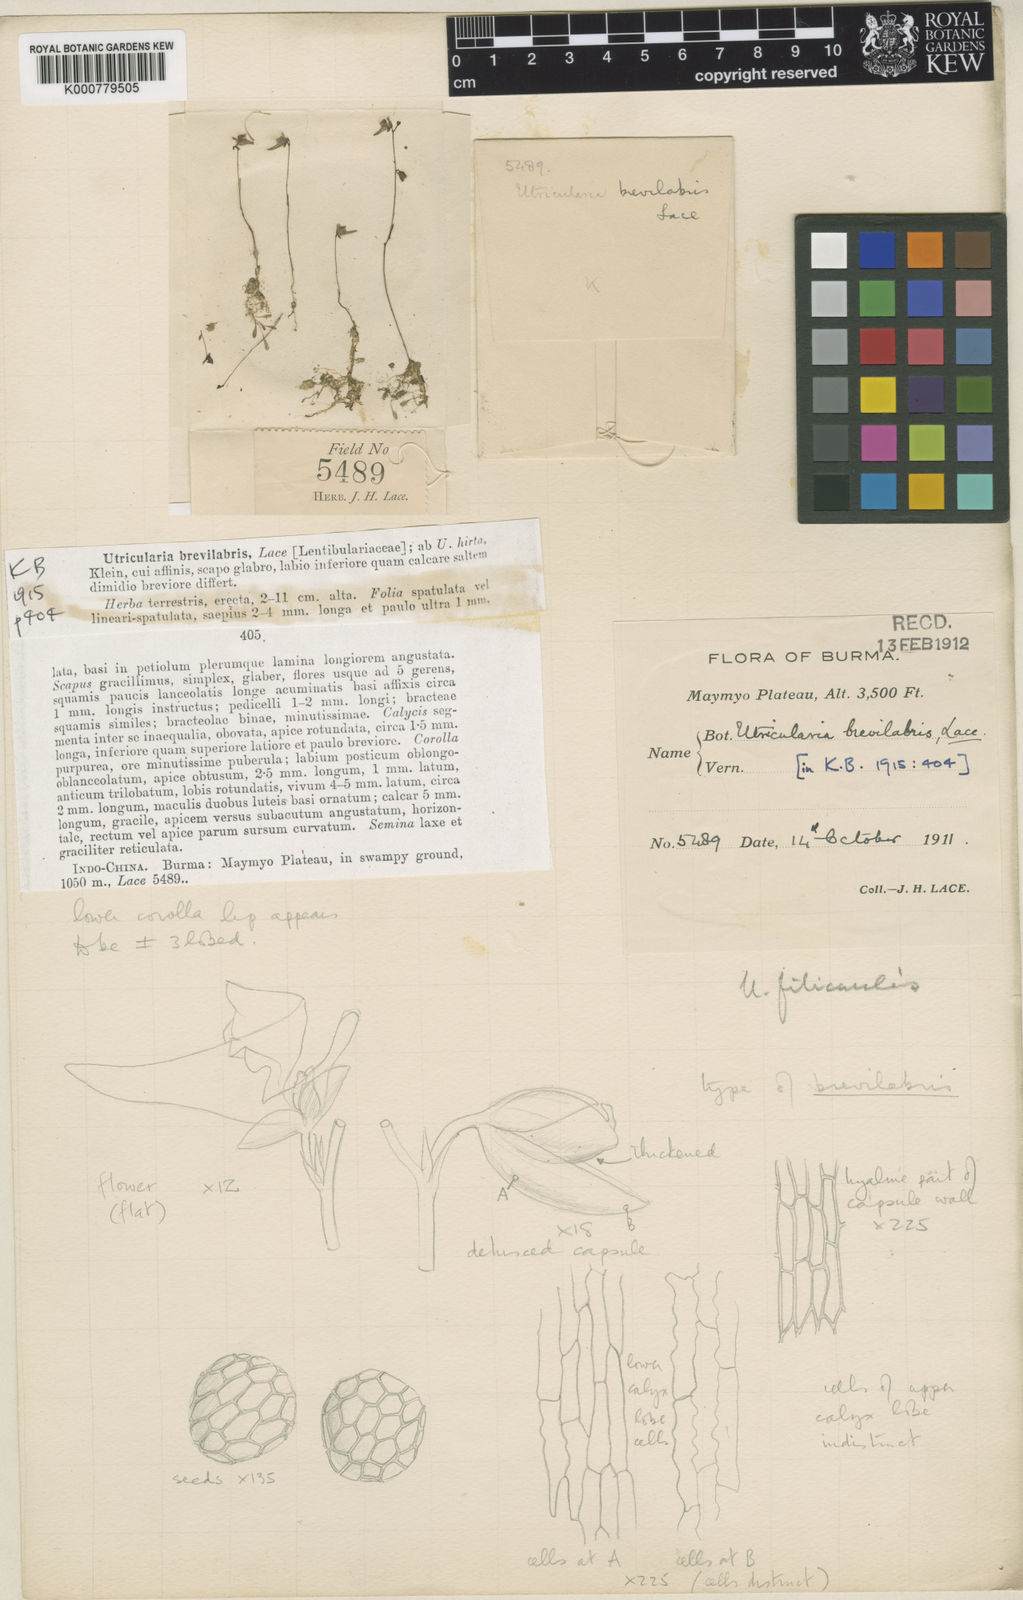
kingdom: Plantae
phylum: Tracheophyta
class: Magnoliopsida
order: Lamiales
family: Lentibulariaceae
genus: Utricularia
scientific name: Utricularia minutissima
